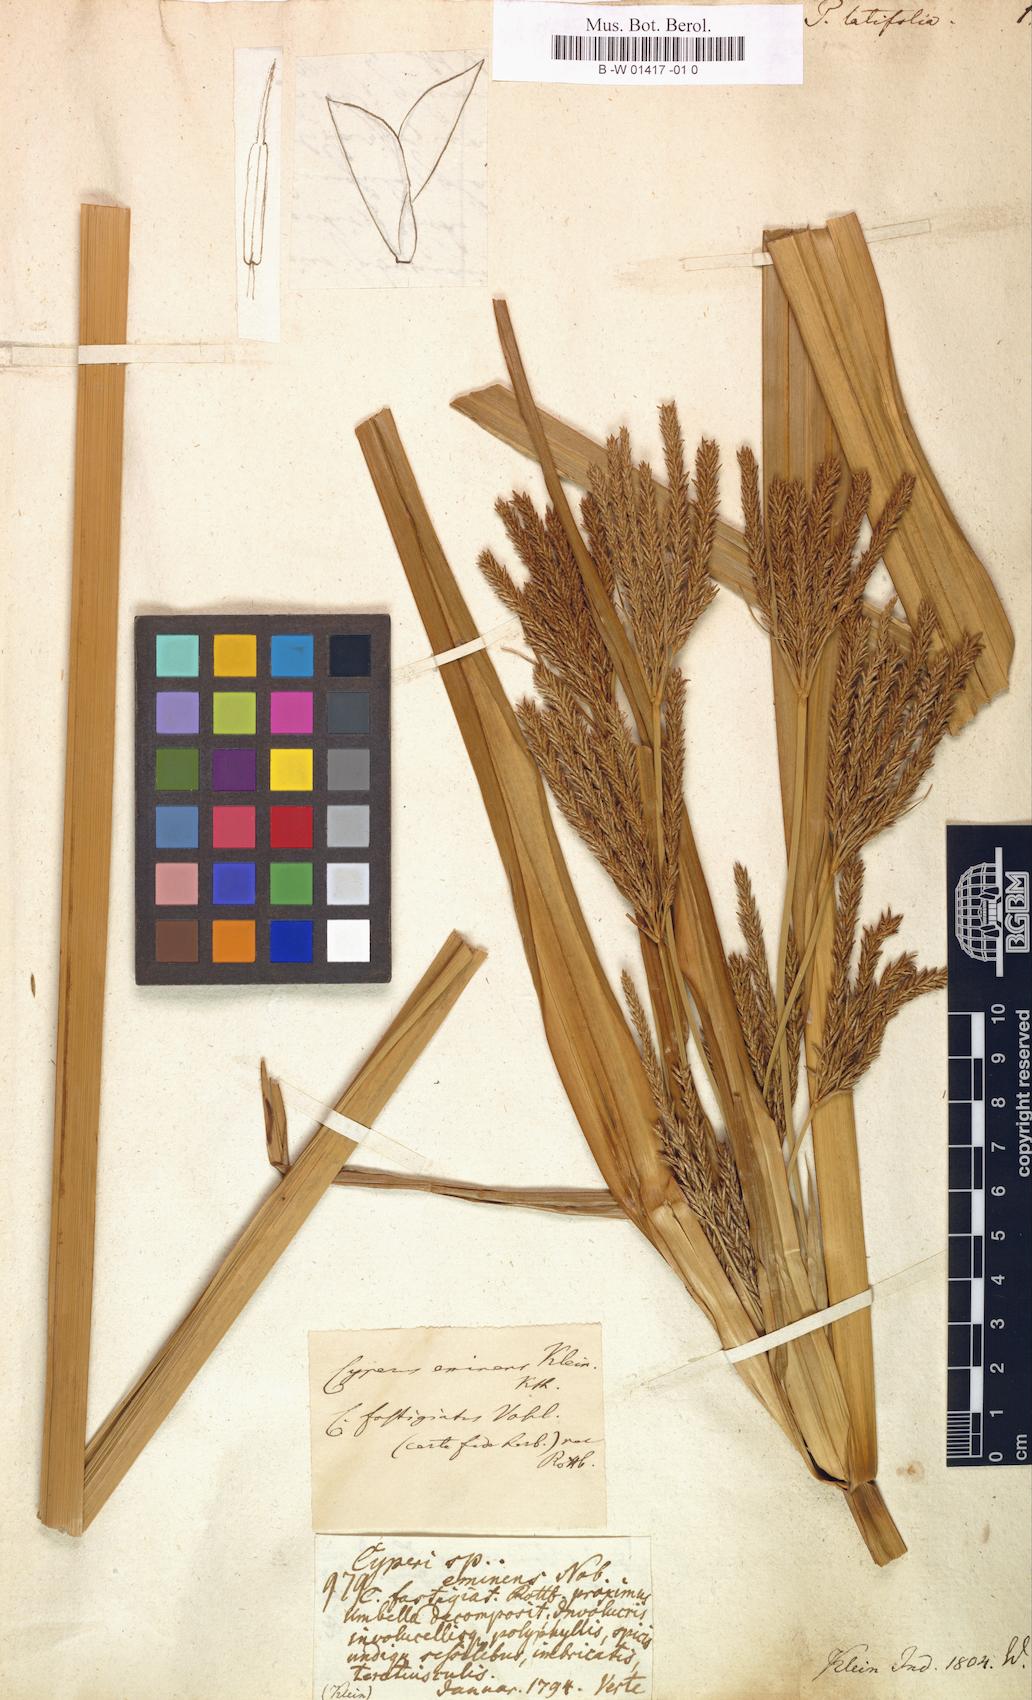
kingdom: Plantae
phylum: Tracheophyta
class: Liliopsida
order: Poales
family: Cyperaceae
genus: Cyperus
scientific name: Cyperus platyphyllus
